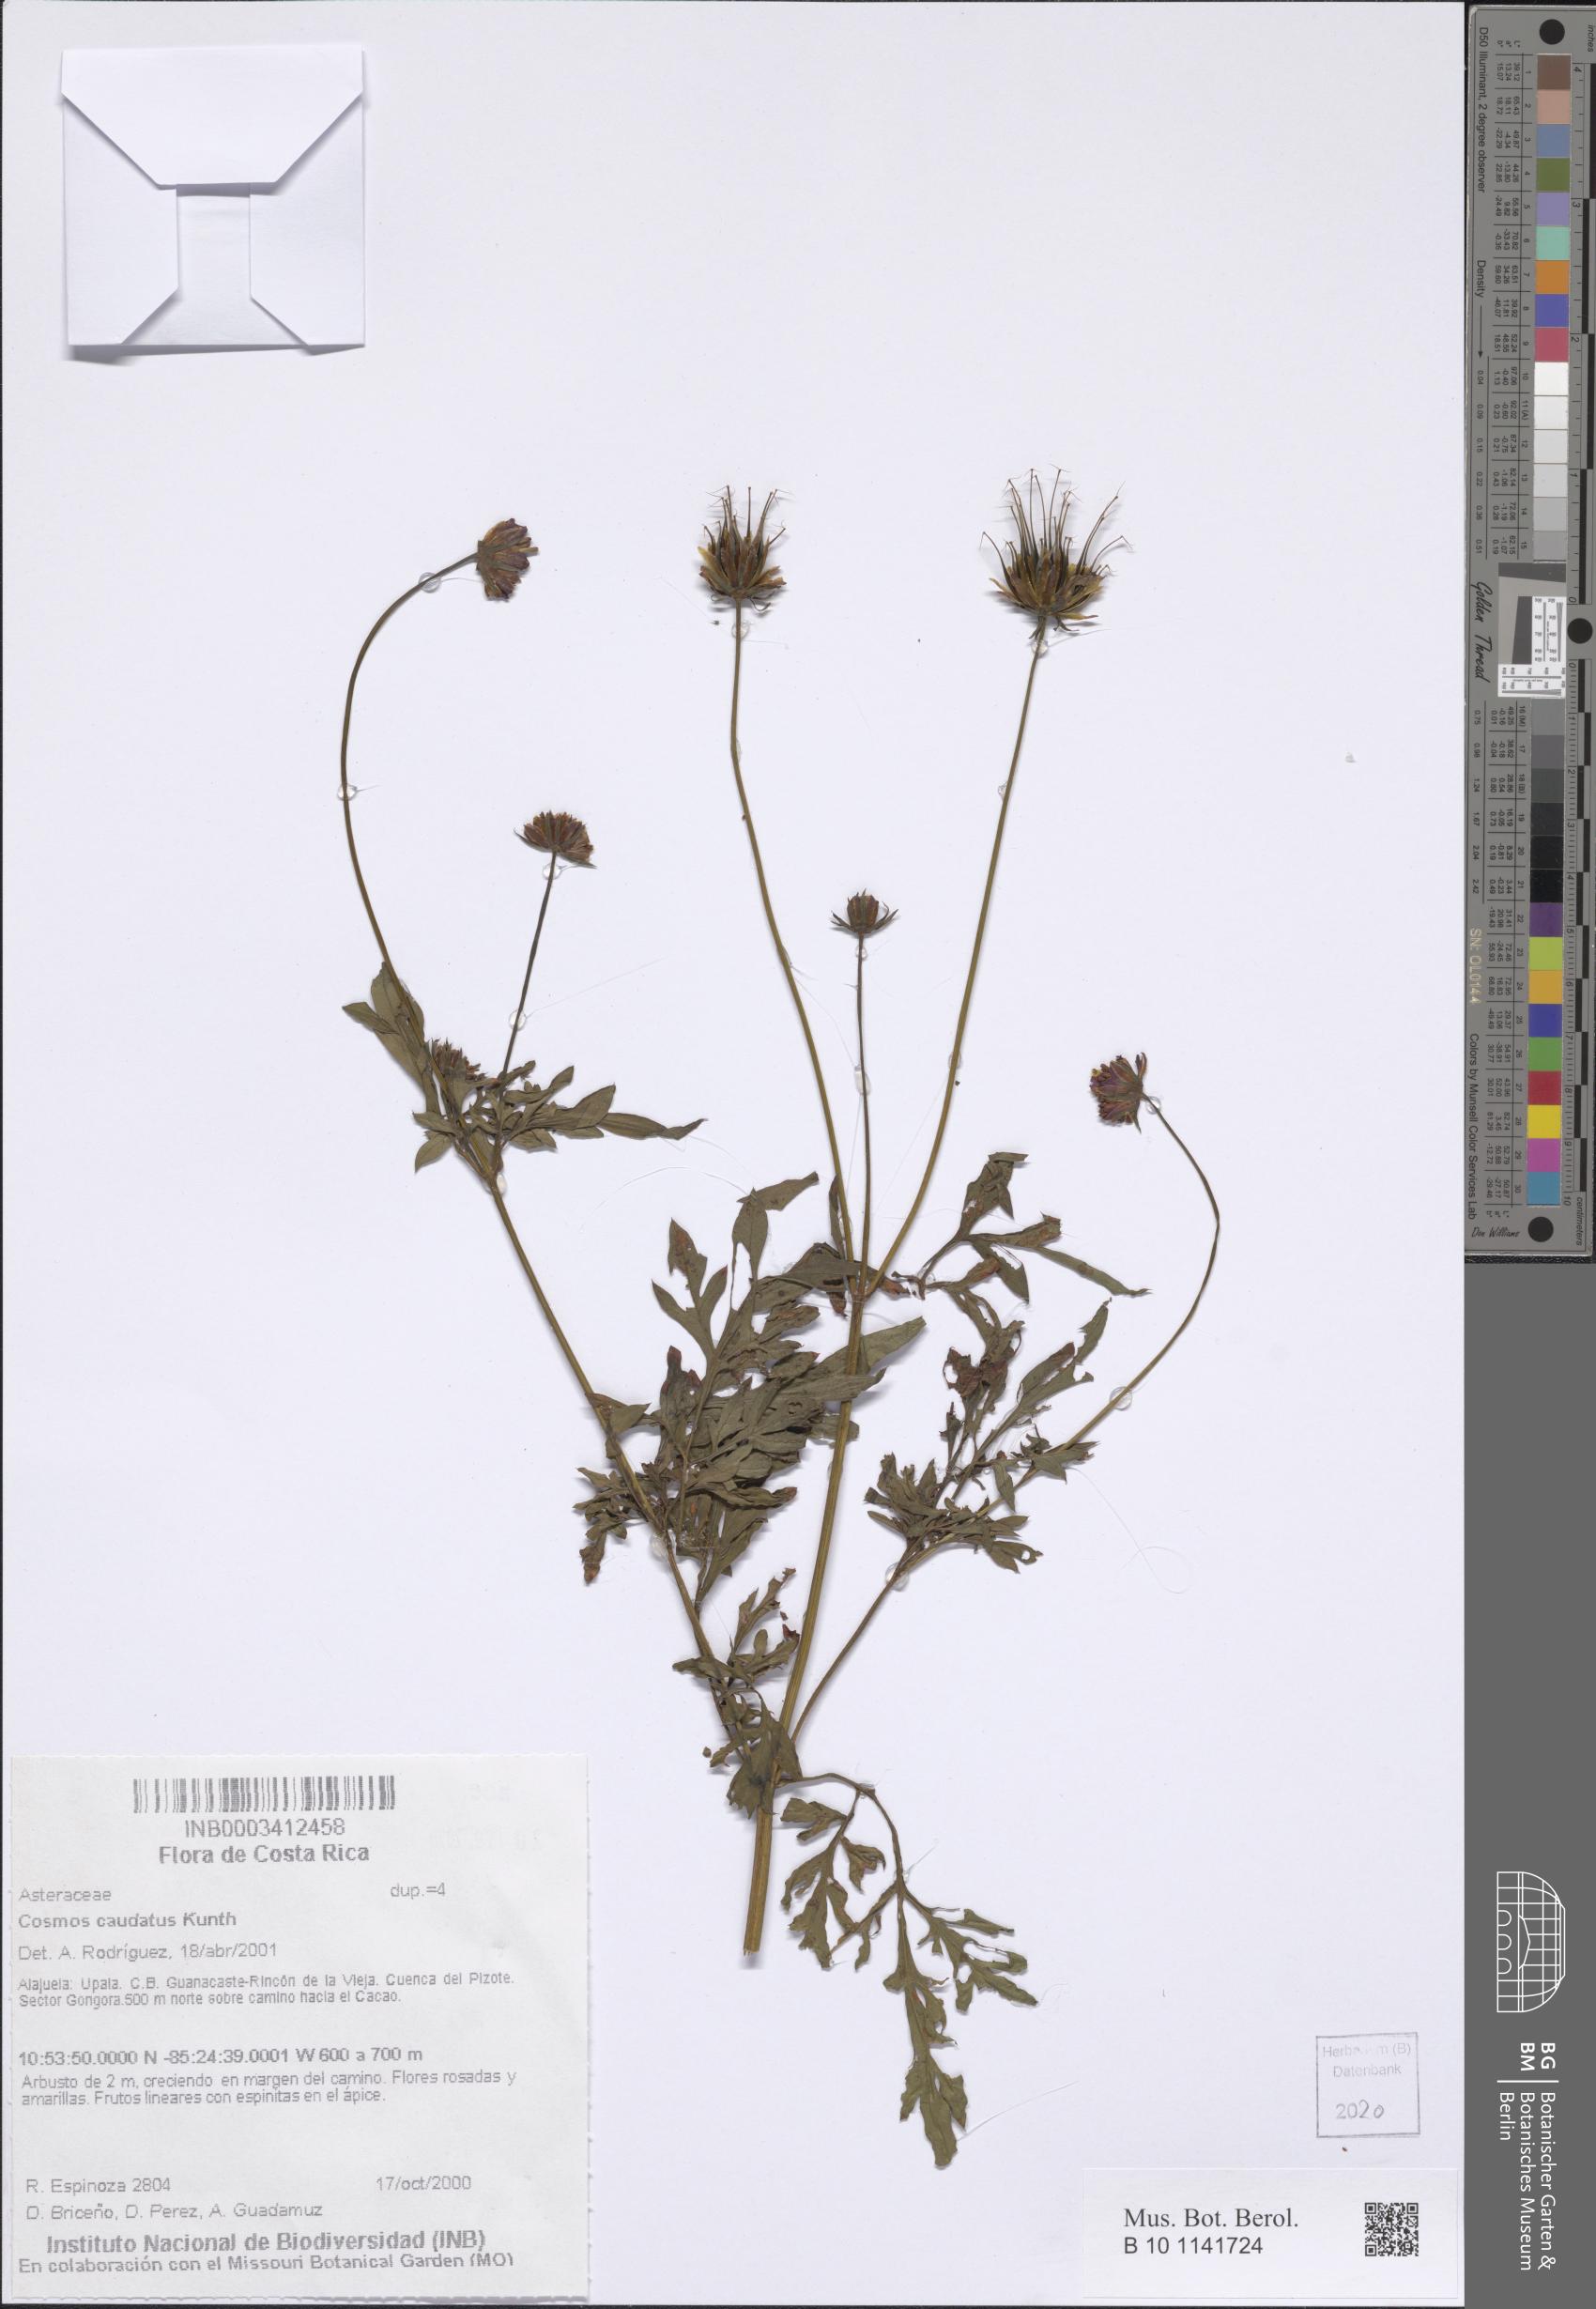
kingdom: Plantae
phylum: Tracheophyta
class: Magnoliopsida
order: Asterales
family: Asteraceae
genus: Cosmos
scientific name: Cosmos caudatus
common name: Wild cosmos
